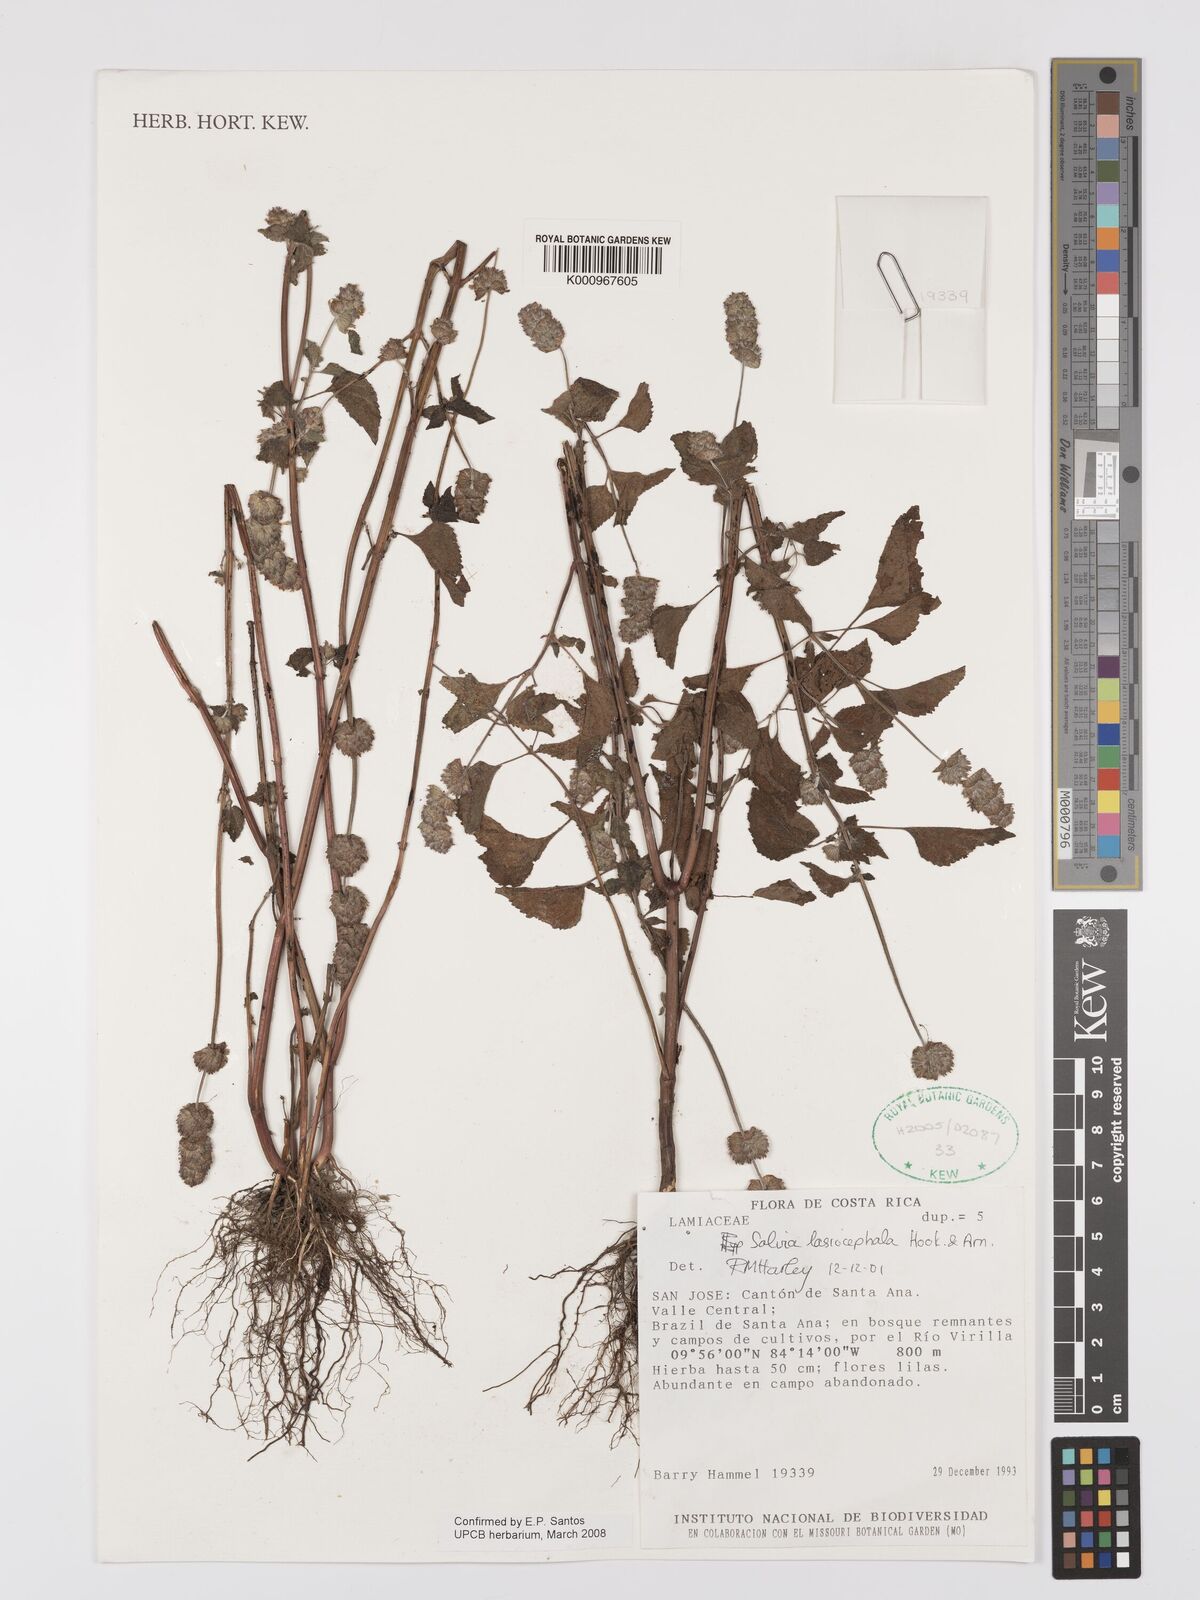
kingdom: Plantae
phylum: Tracheophyta
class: Magnoliopsida
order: Lamiales
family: Lamiaceae
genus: Salvia
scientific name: Salvia lasiocephala
